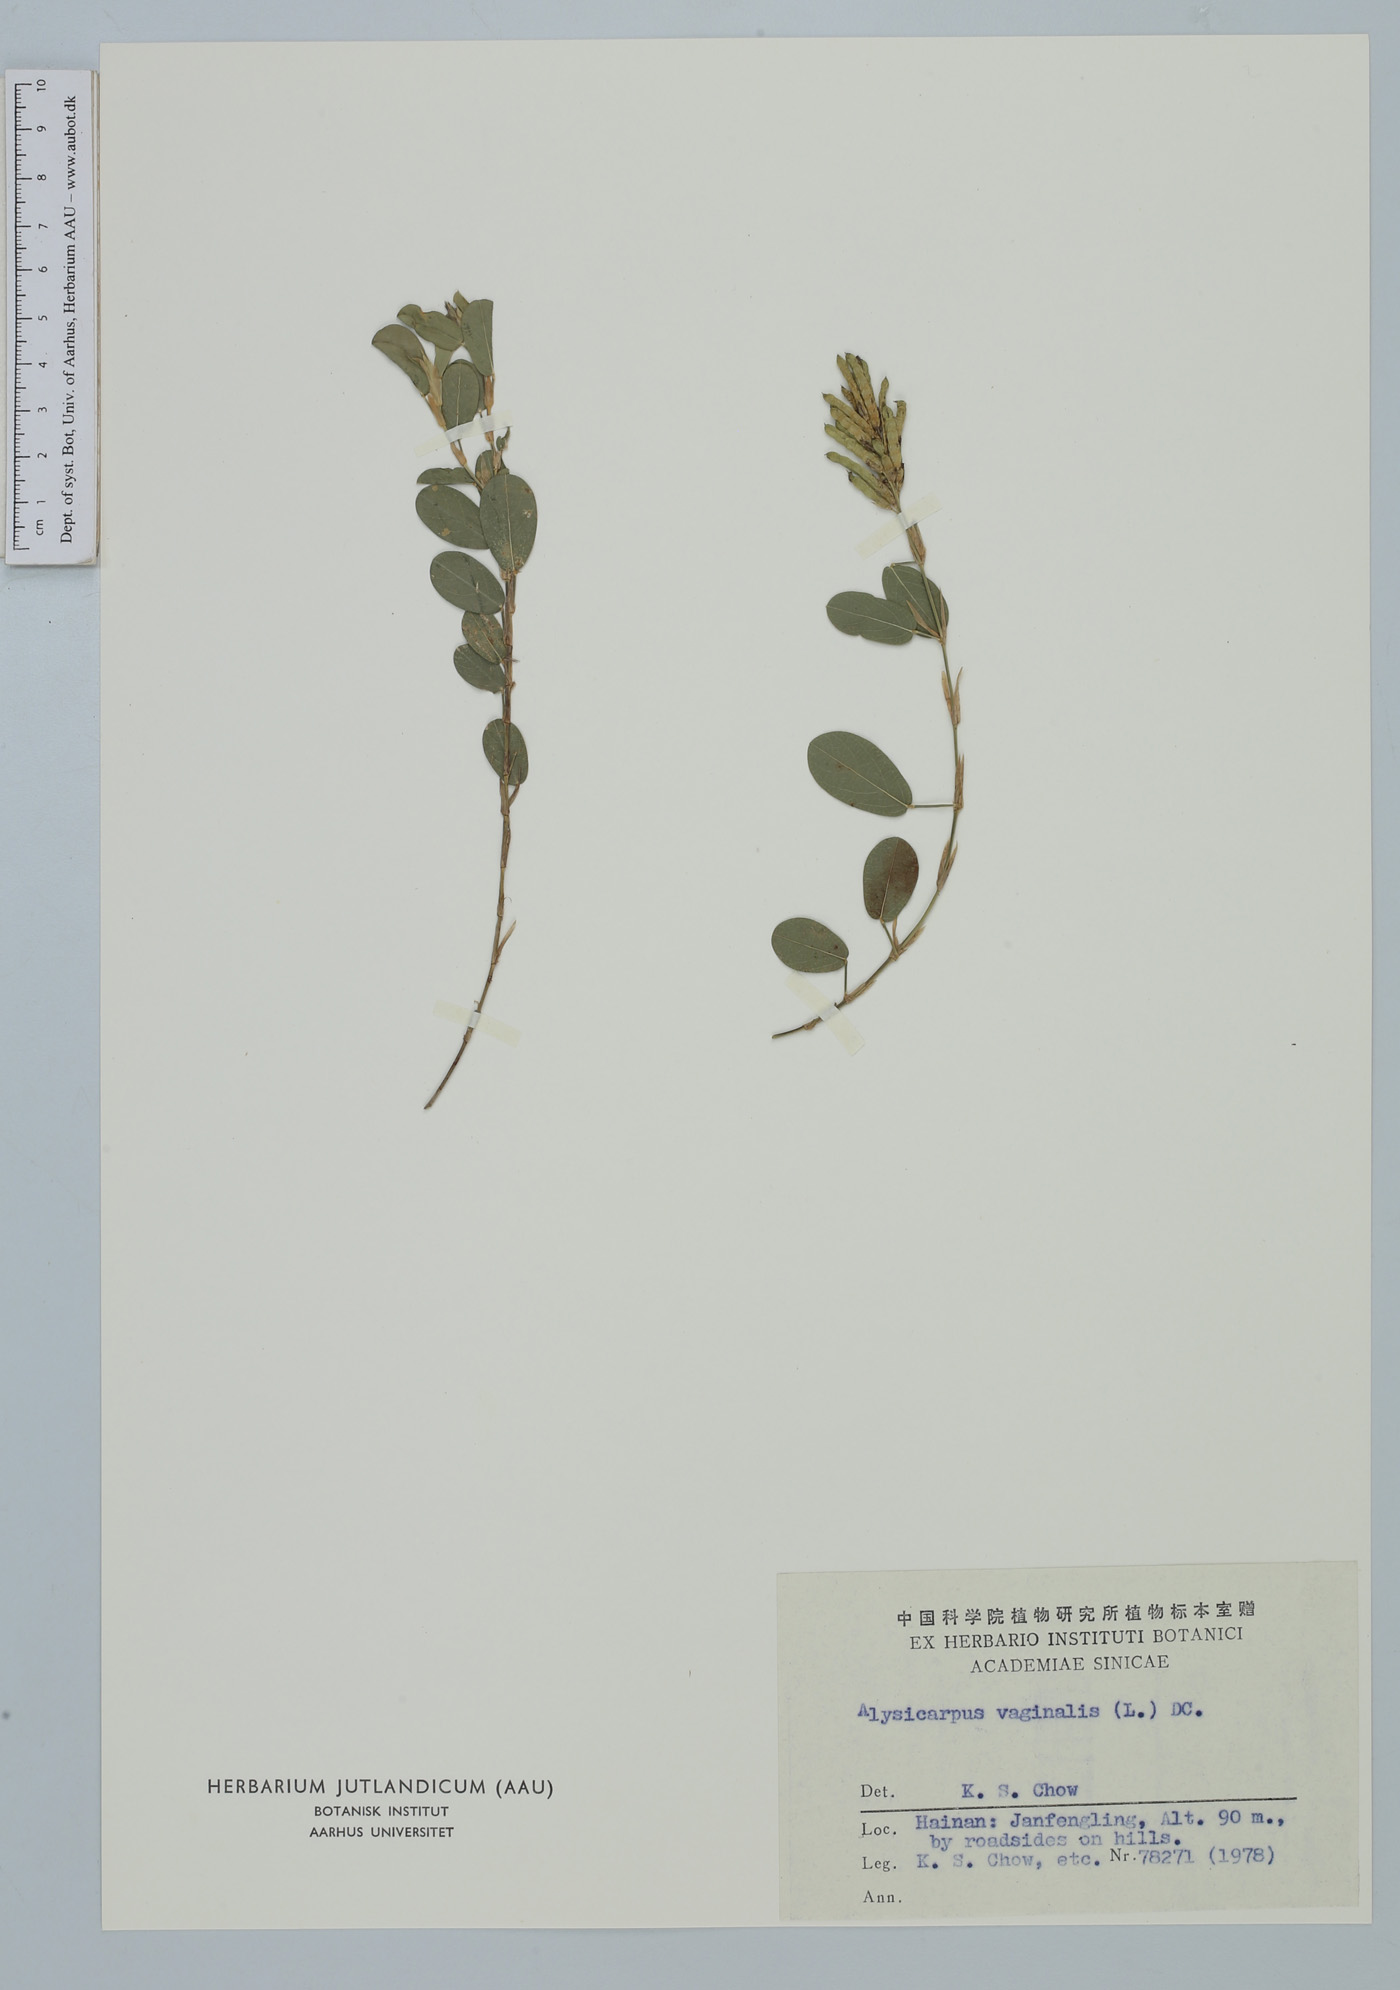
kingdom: Plantae
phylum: Tracheophyta
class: Magnoliopsida
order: Fabales
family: Fabaceae
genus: Alysicarpus
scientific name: Alysicarpus vaginalis
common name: White moneywort
